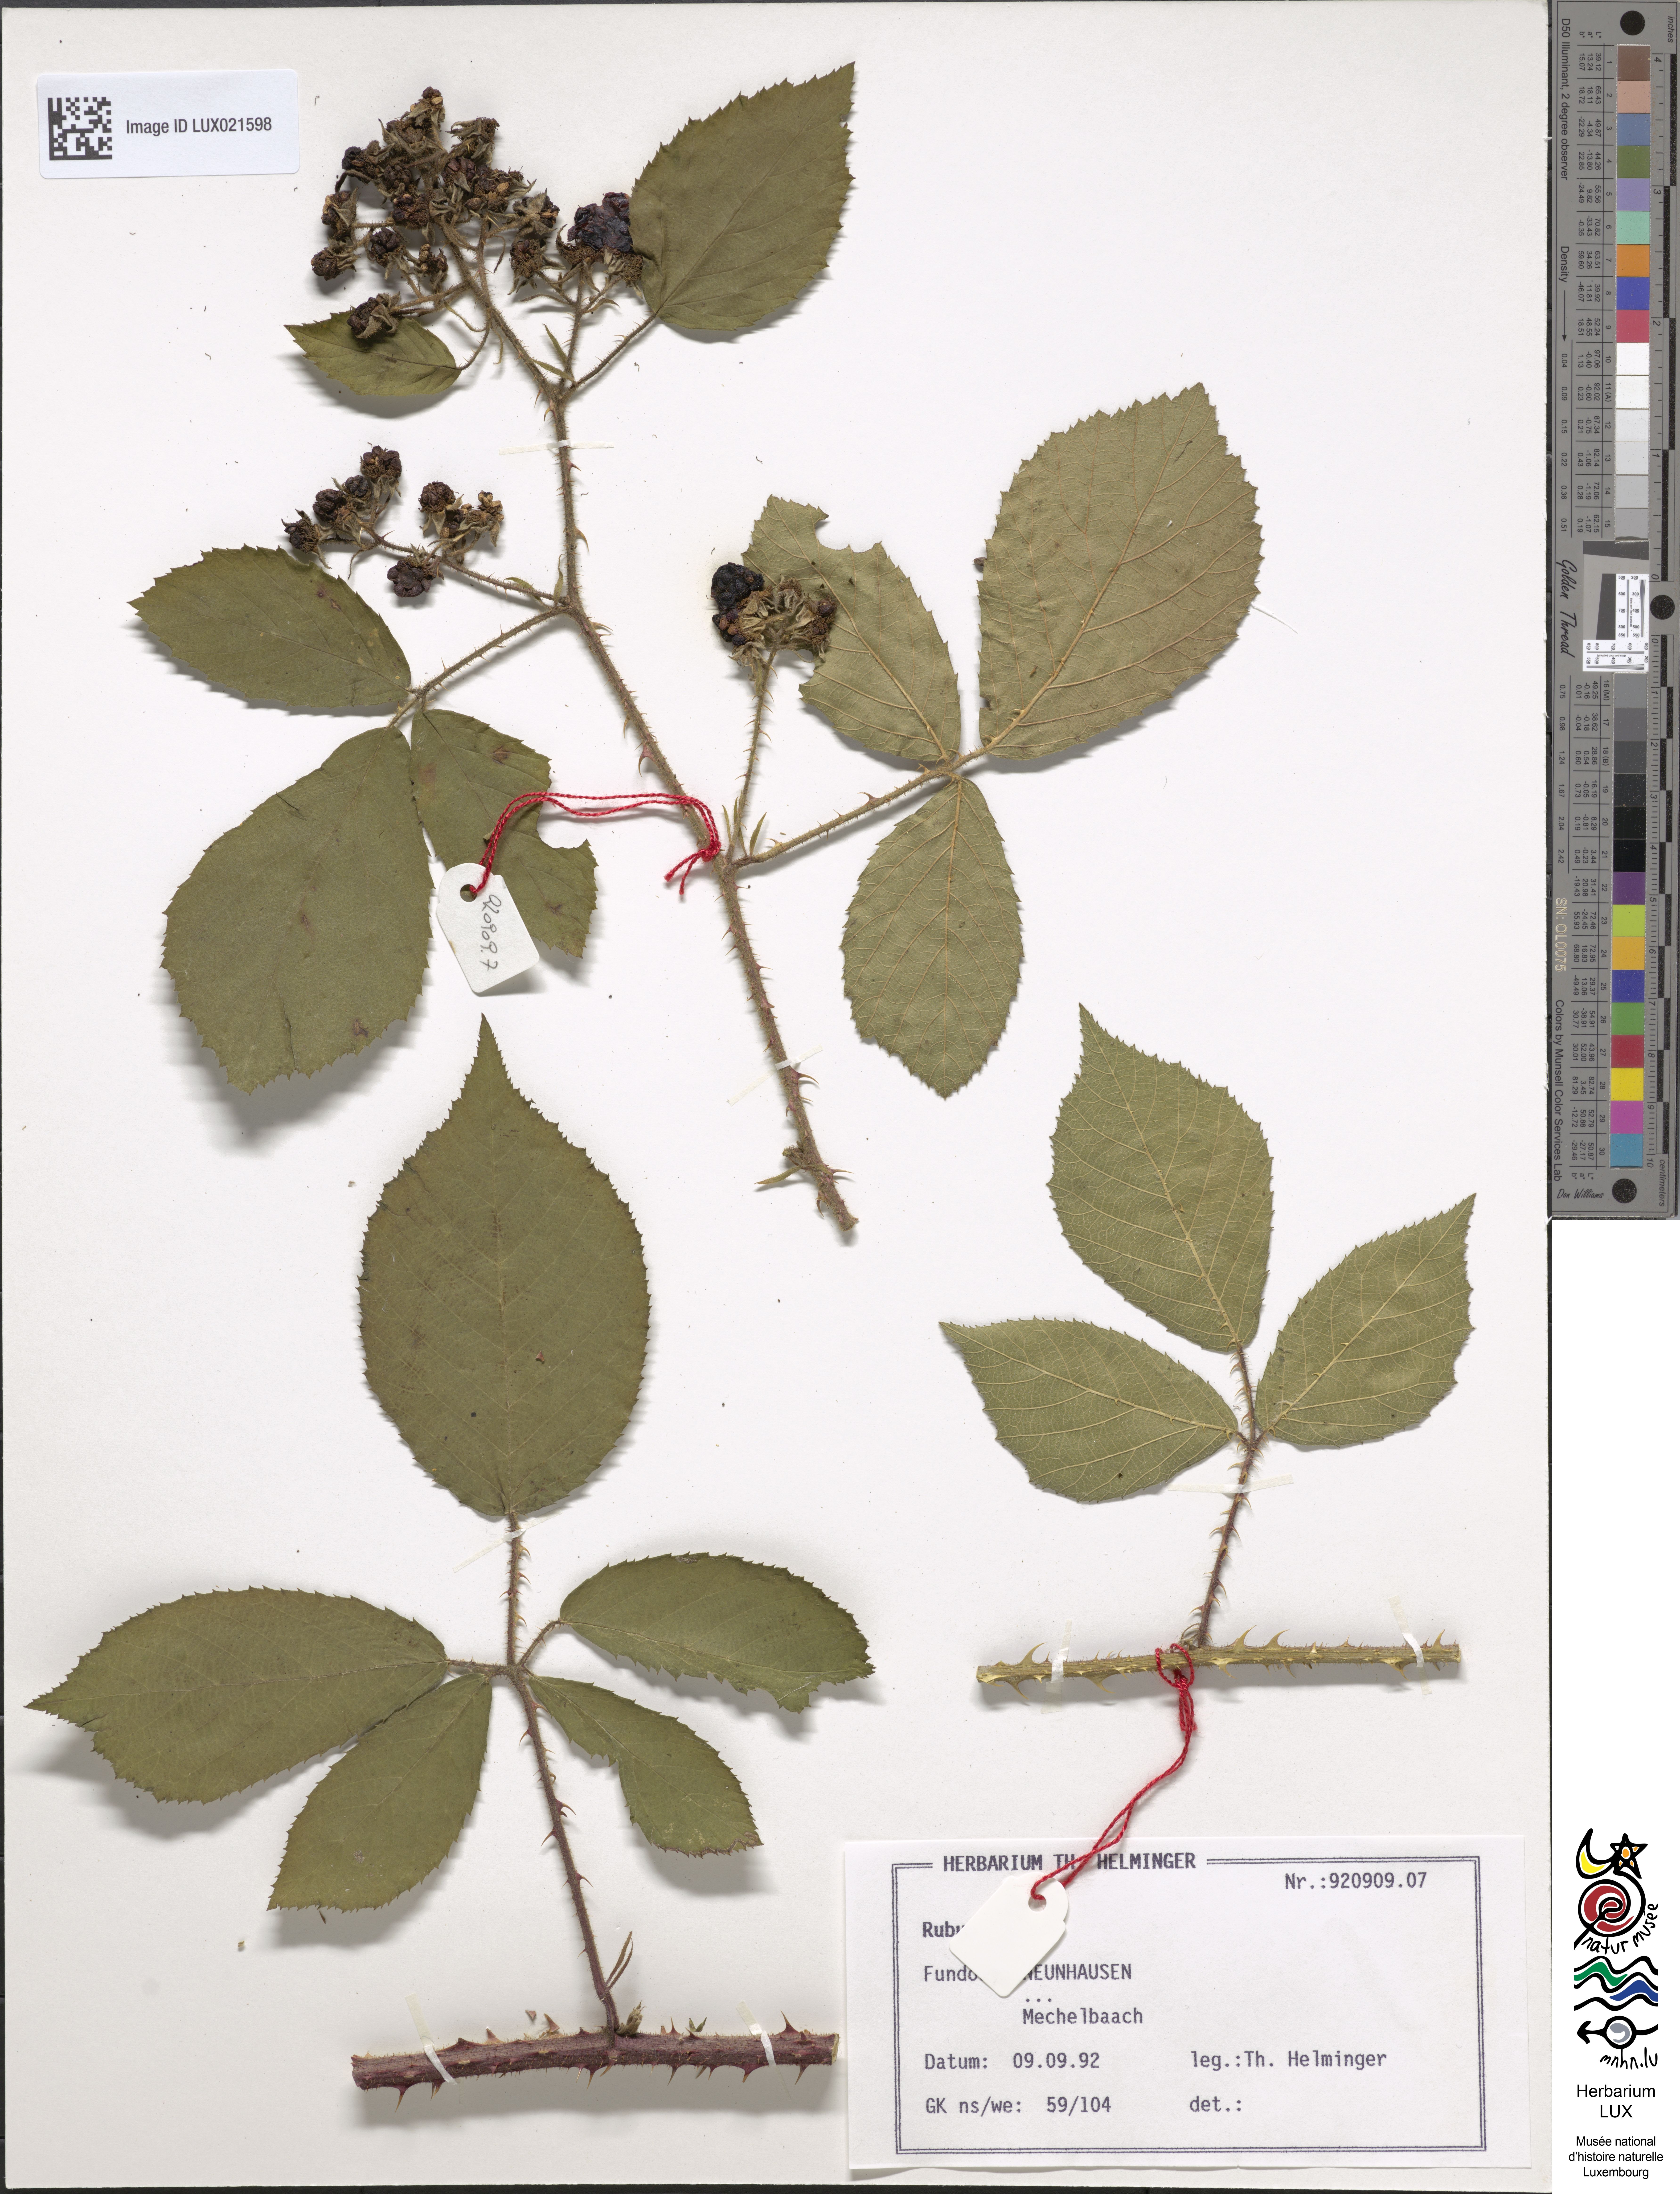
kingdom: Plantae
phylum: Tracheophyta
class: Magnoliopsida
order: Rosales
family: Rosaceae
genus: Rubus
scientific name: Rubus
